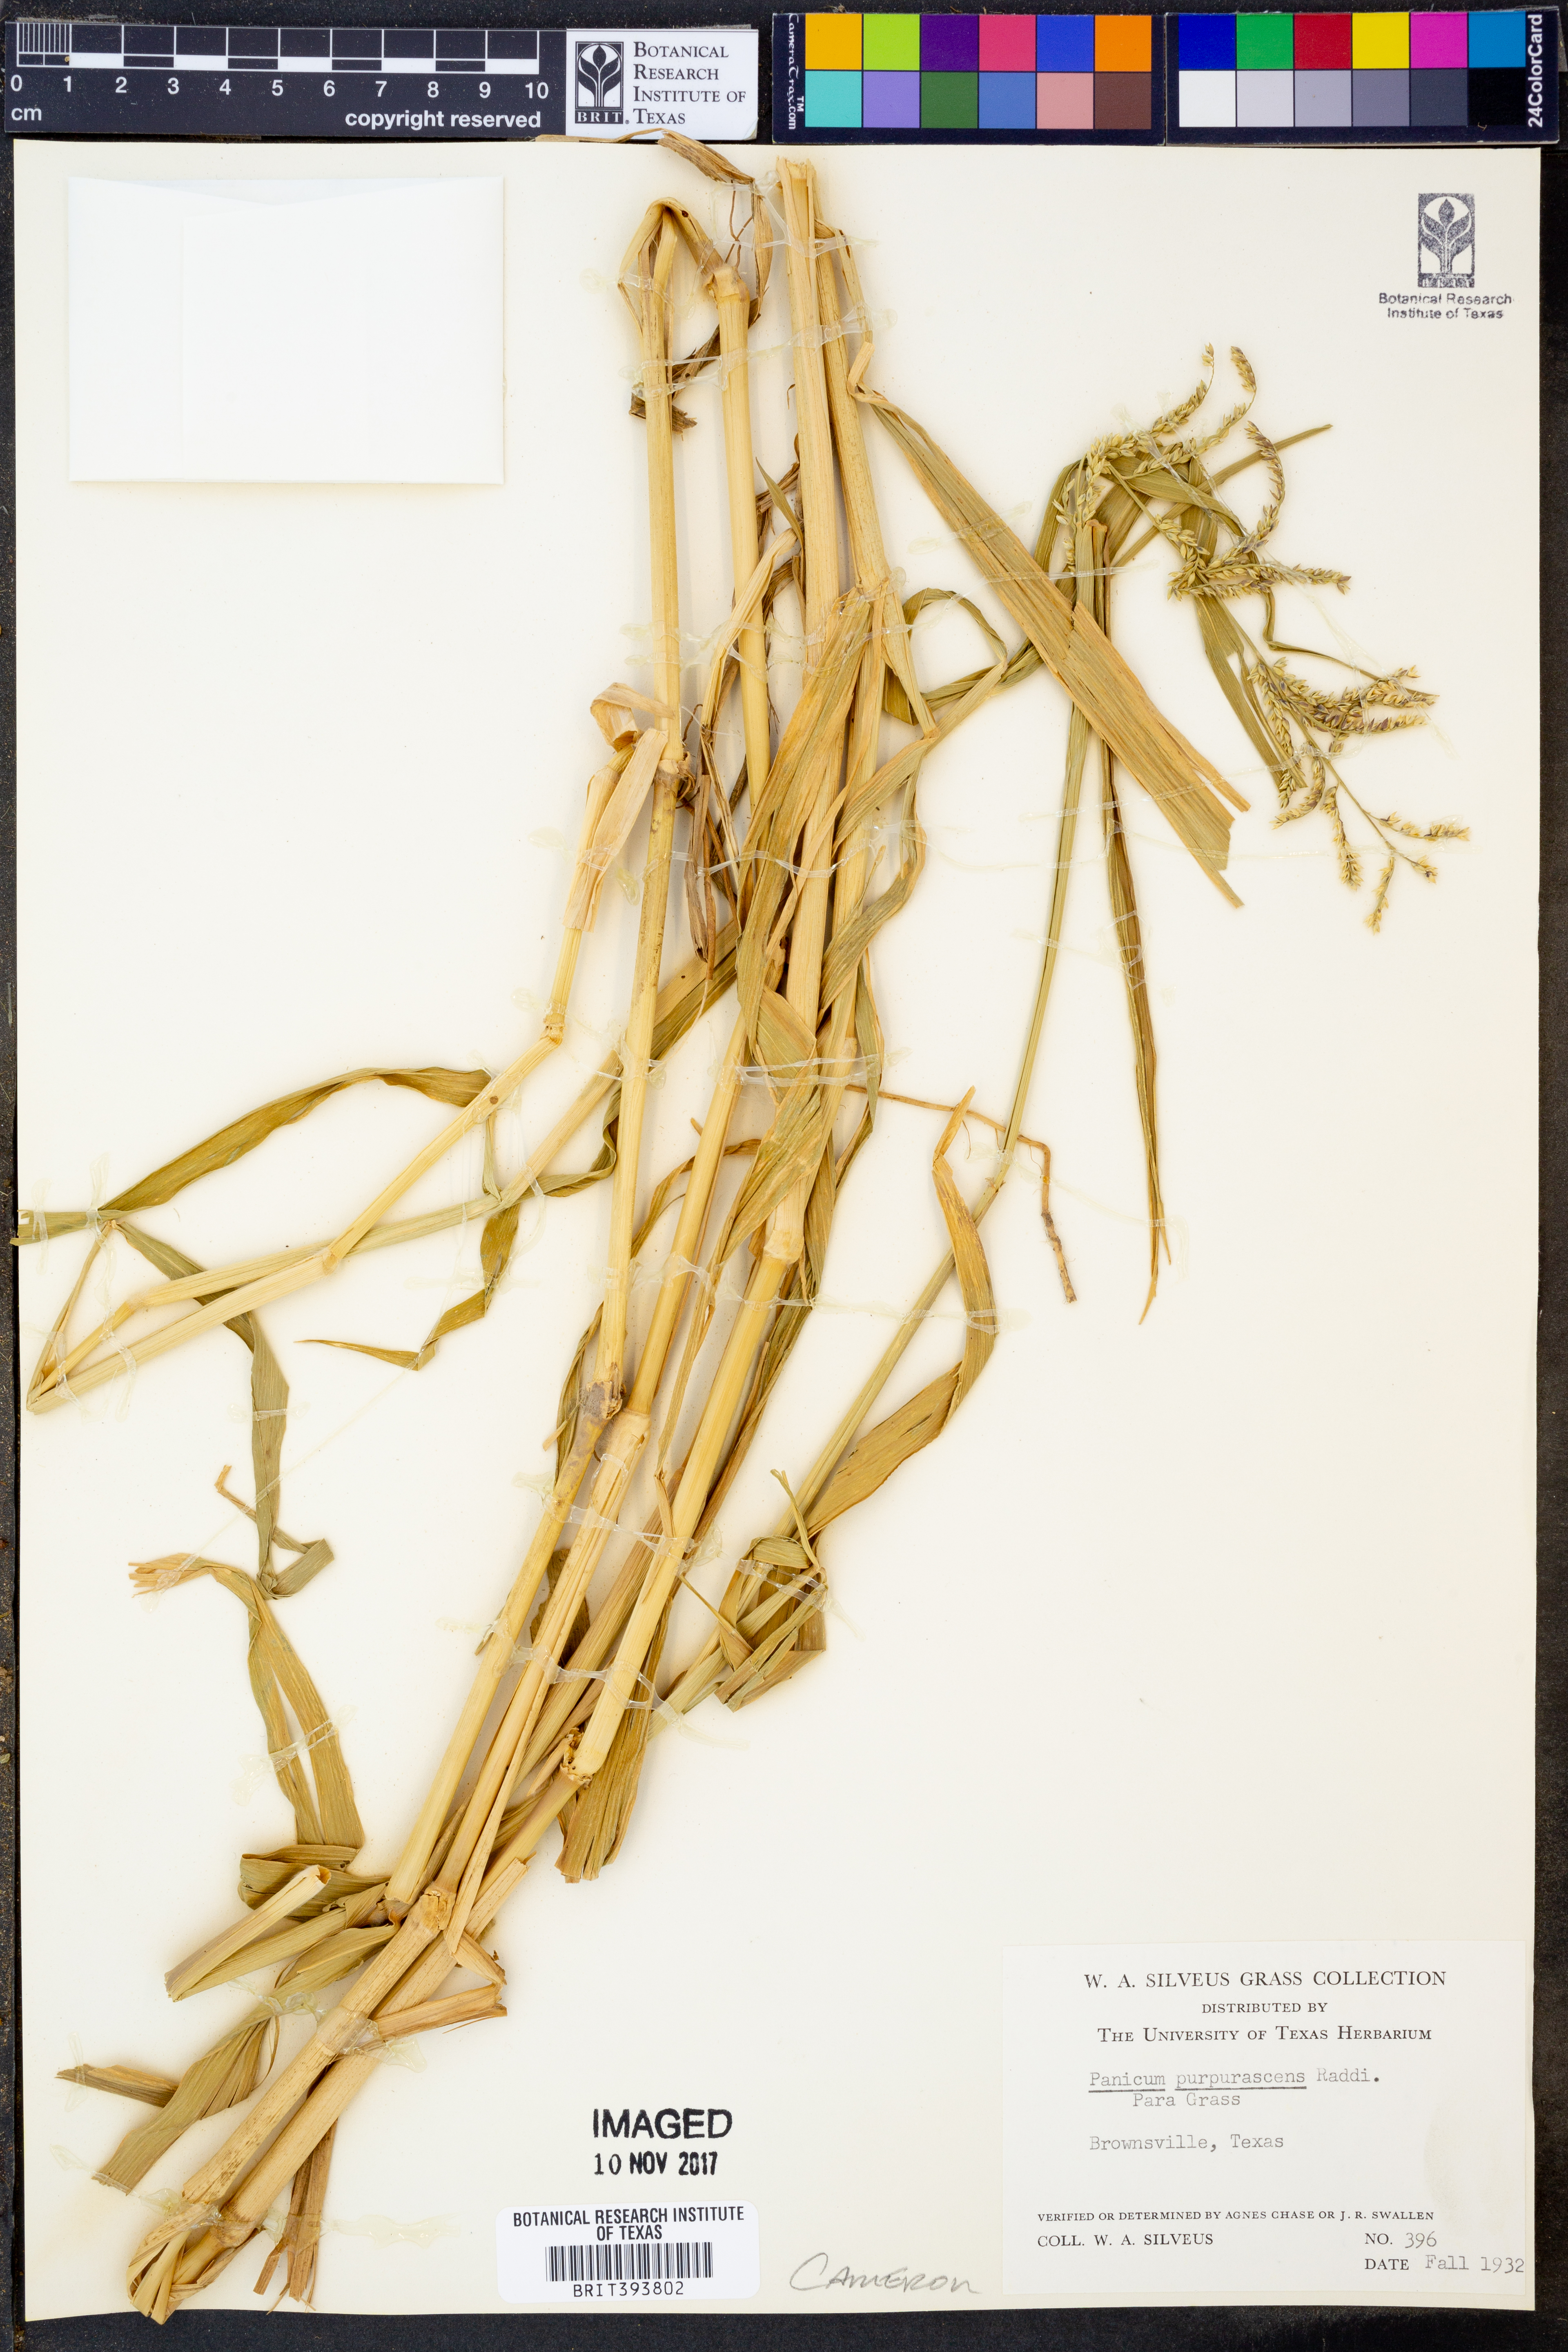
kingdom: Plantae
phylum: Tracheophyta
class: Liliopsida
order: Poales
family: Poaceae
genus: Panicum
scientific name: Panicum fluviicola
